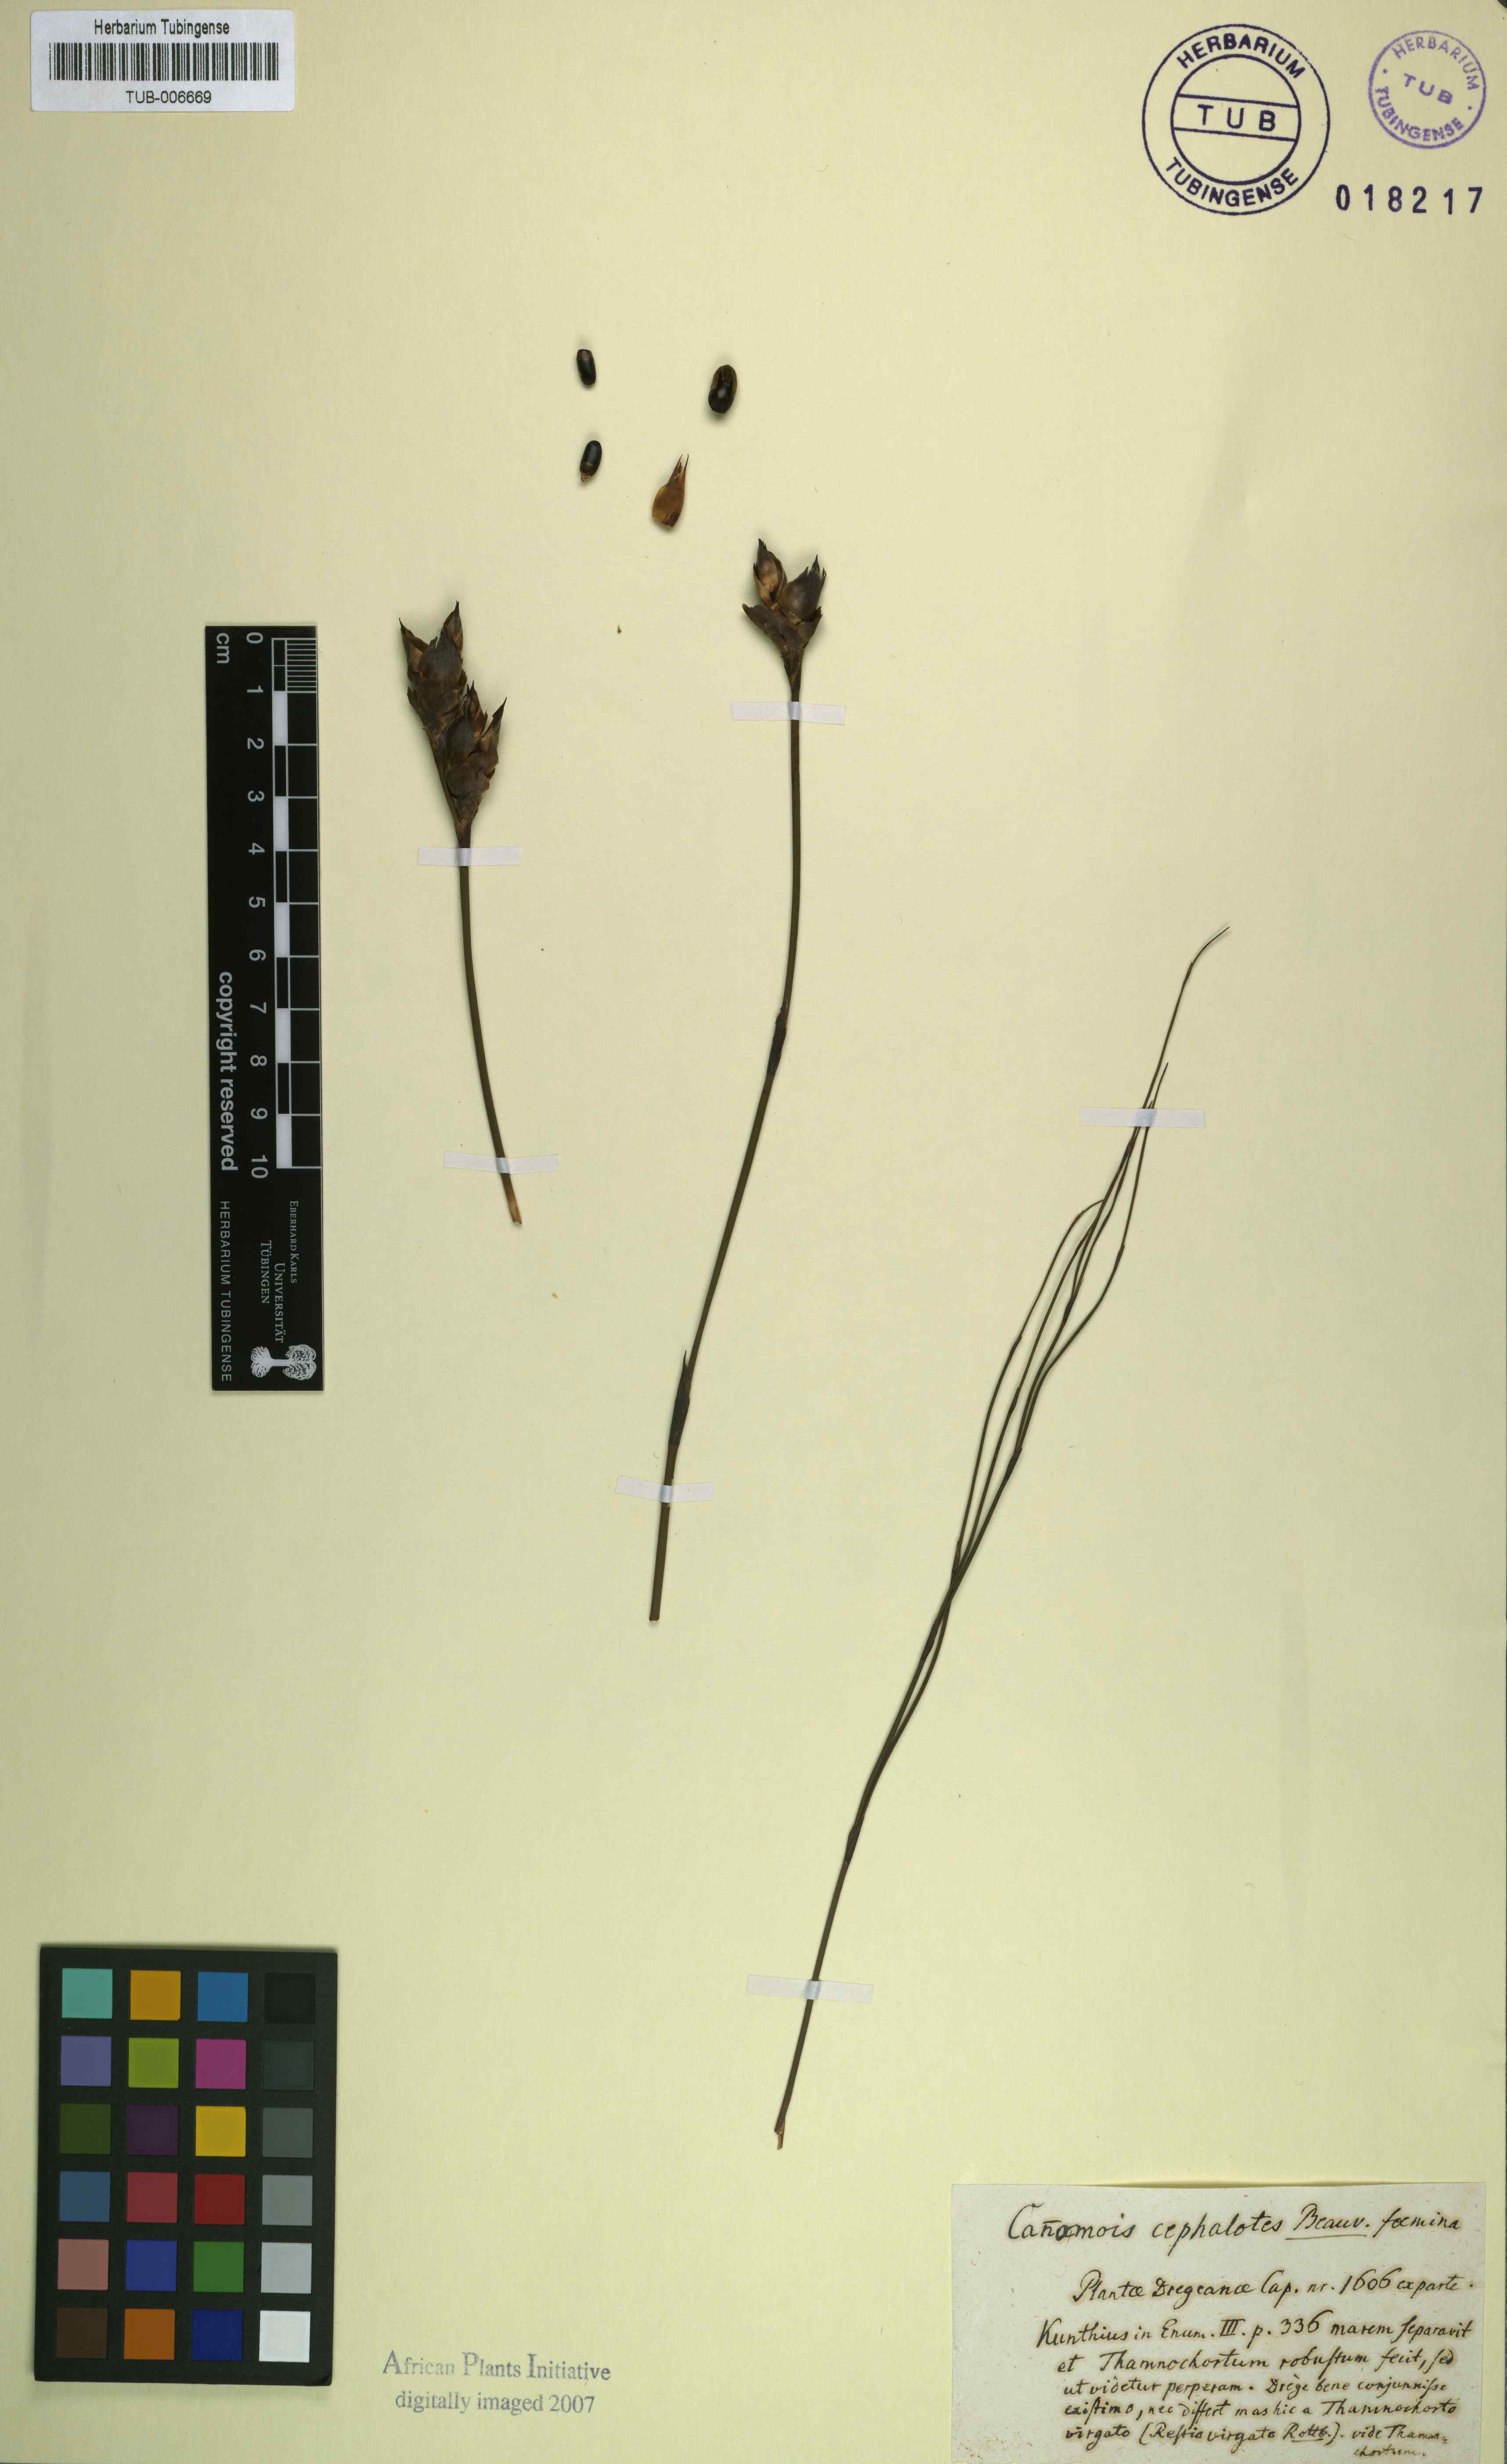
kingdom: Plantae
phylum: Tracheophyta
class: Liliopsida
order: Poales
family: Restionaceae
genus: Cannomois
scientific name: Cannomois virgata
